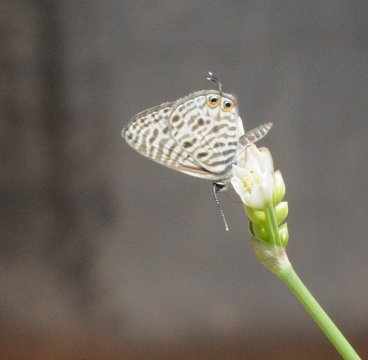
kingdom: Animalia
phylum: Arthropoda
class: Insecta
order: Lepidoptera
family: Lycaenidae
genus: Leptotes
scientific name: Leptotes pirithous
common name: Lang's Short-tailed Blue
